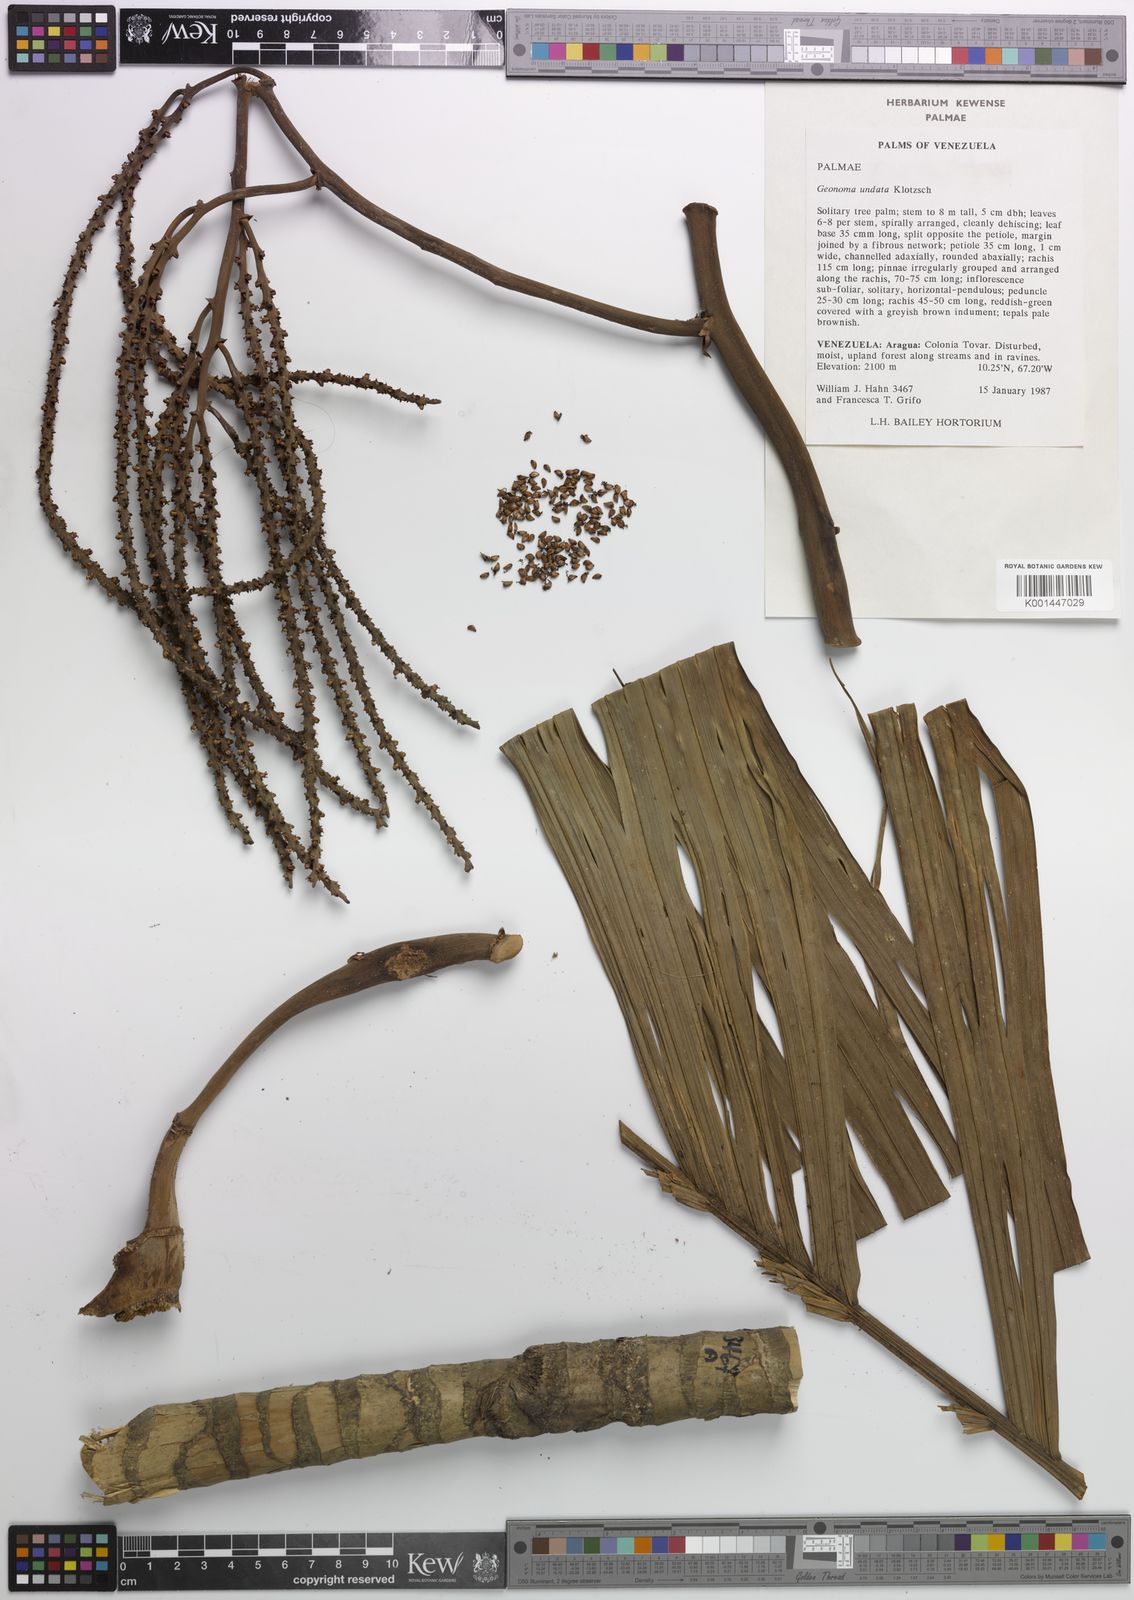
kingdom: Plantae
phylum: Tracheophyta
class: Liliopsida
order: Arecales
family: Arecaceae
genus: Geonoma
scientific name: Geonoma undata
